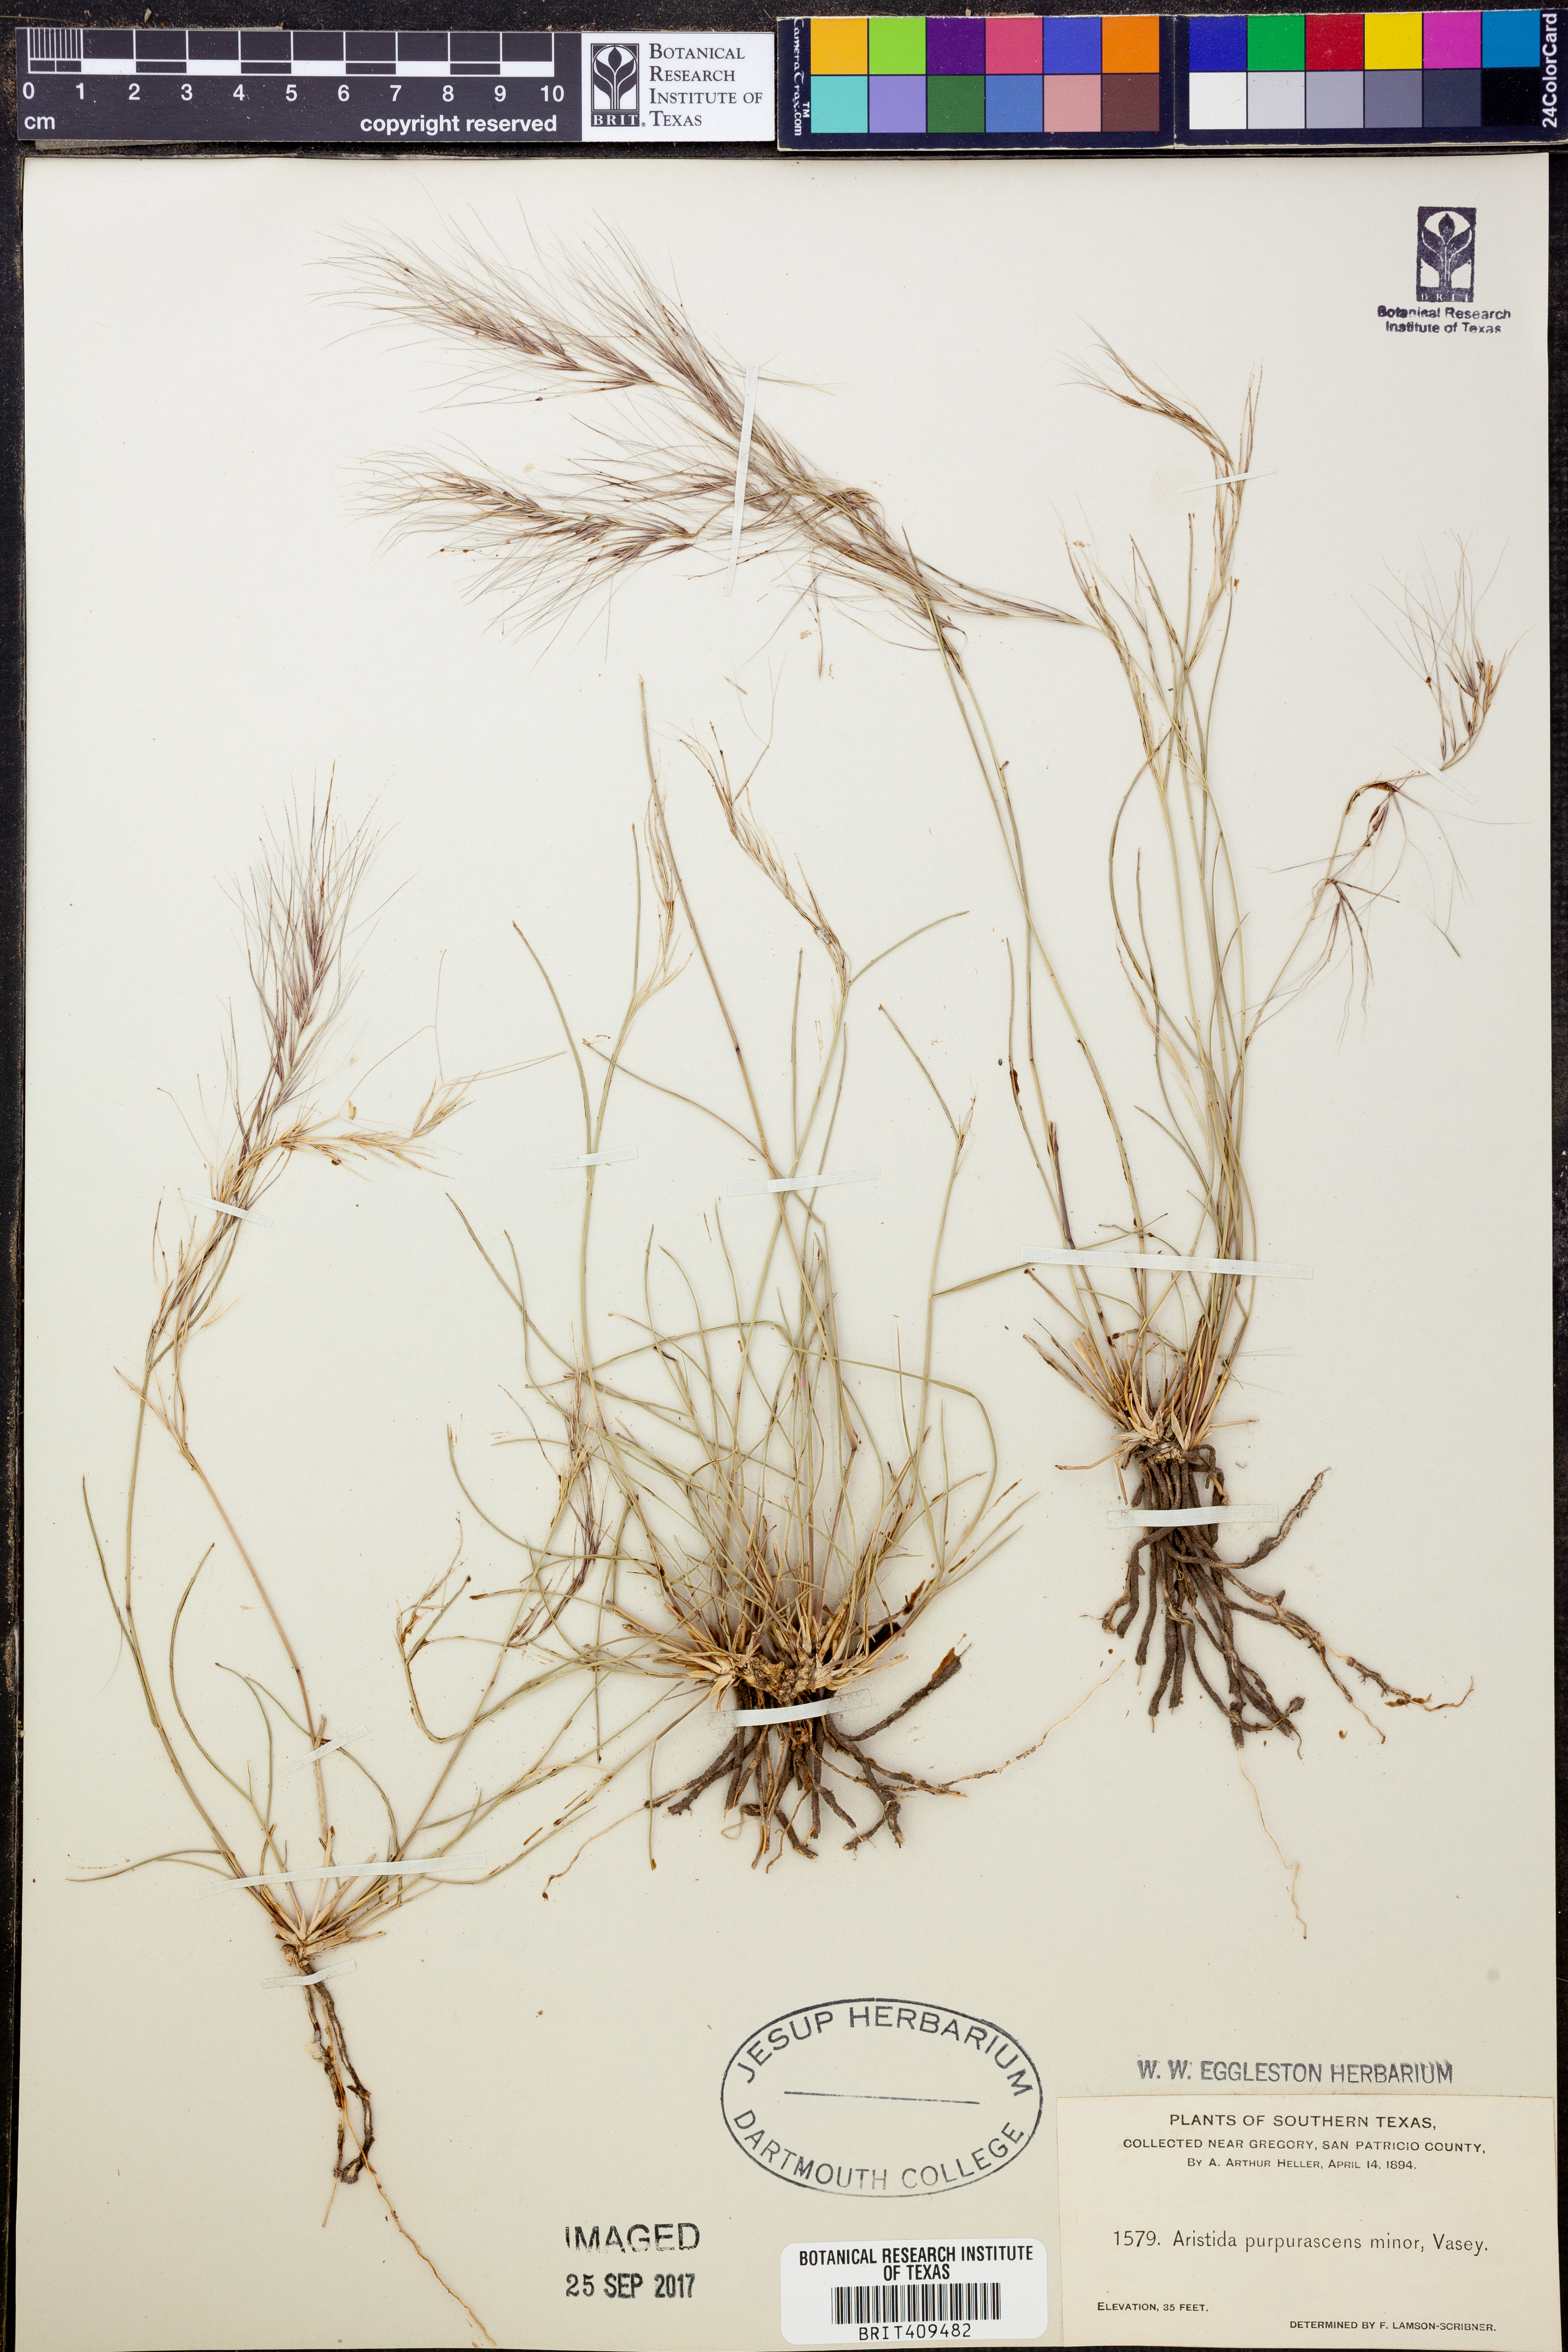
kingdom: Plantae
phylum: Tracheophyta
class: Liliopsida
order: Poales
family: Poaceae
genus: Aristida
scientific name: Aristida purpurascens
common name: Arrow-feather
